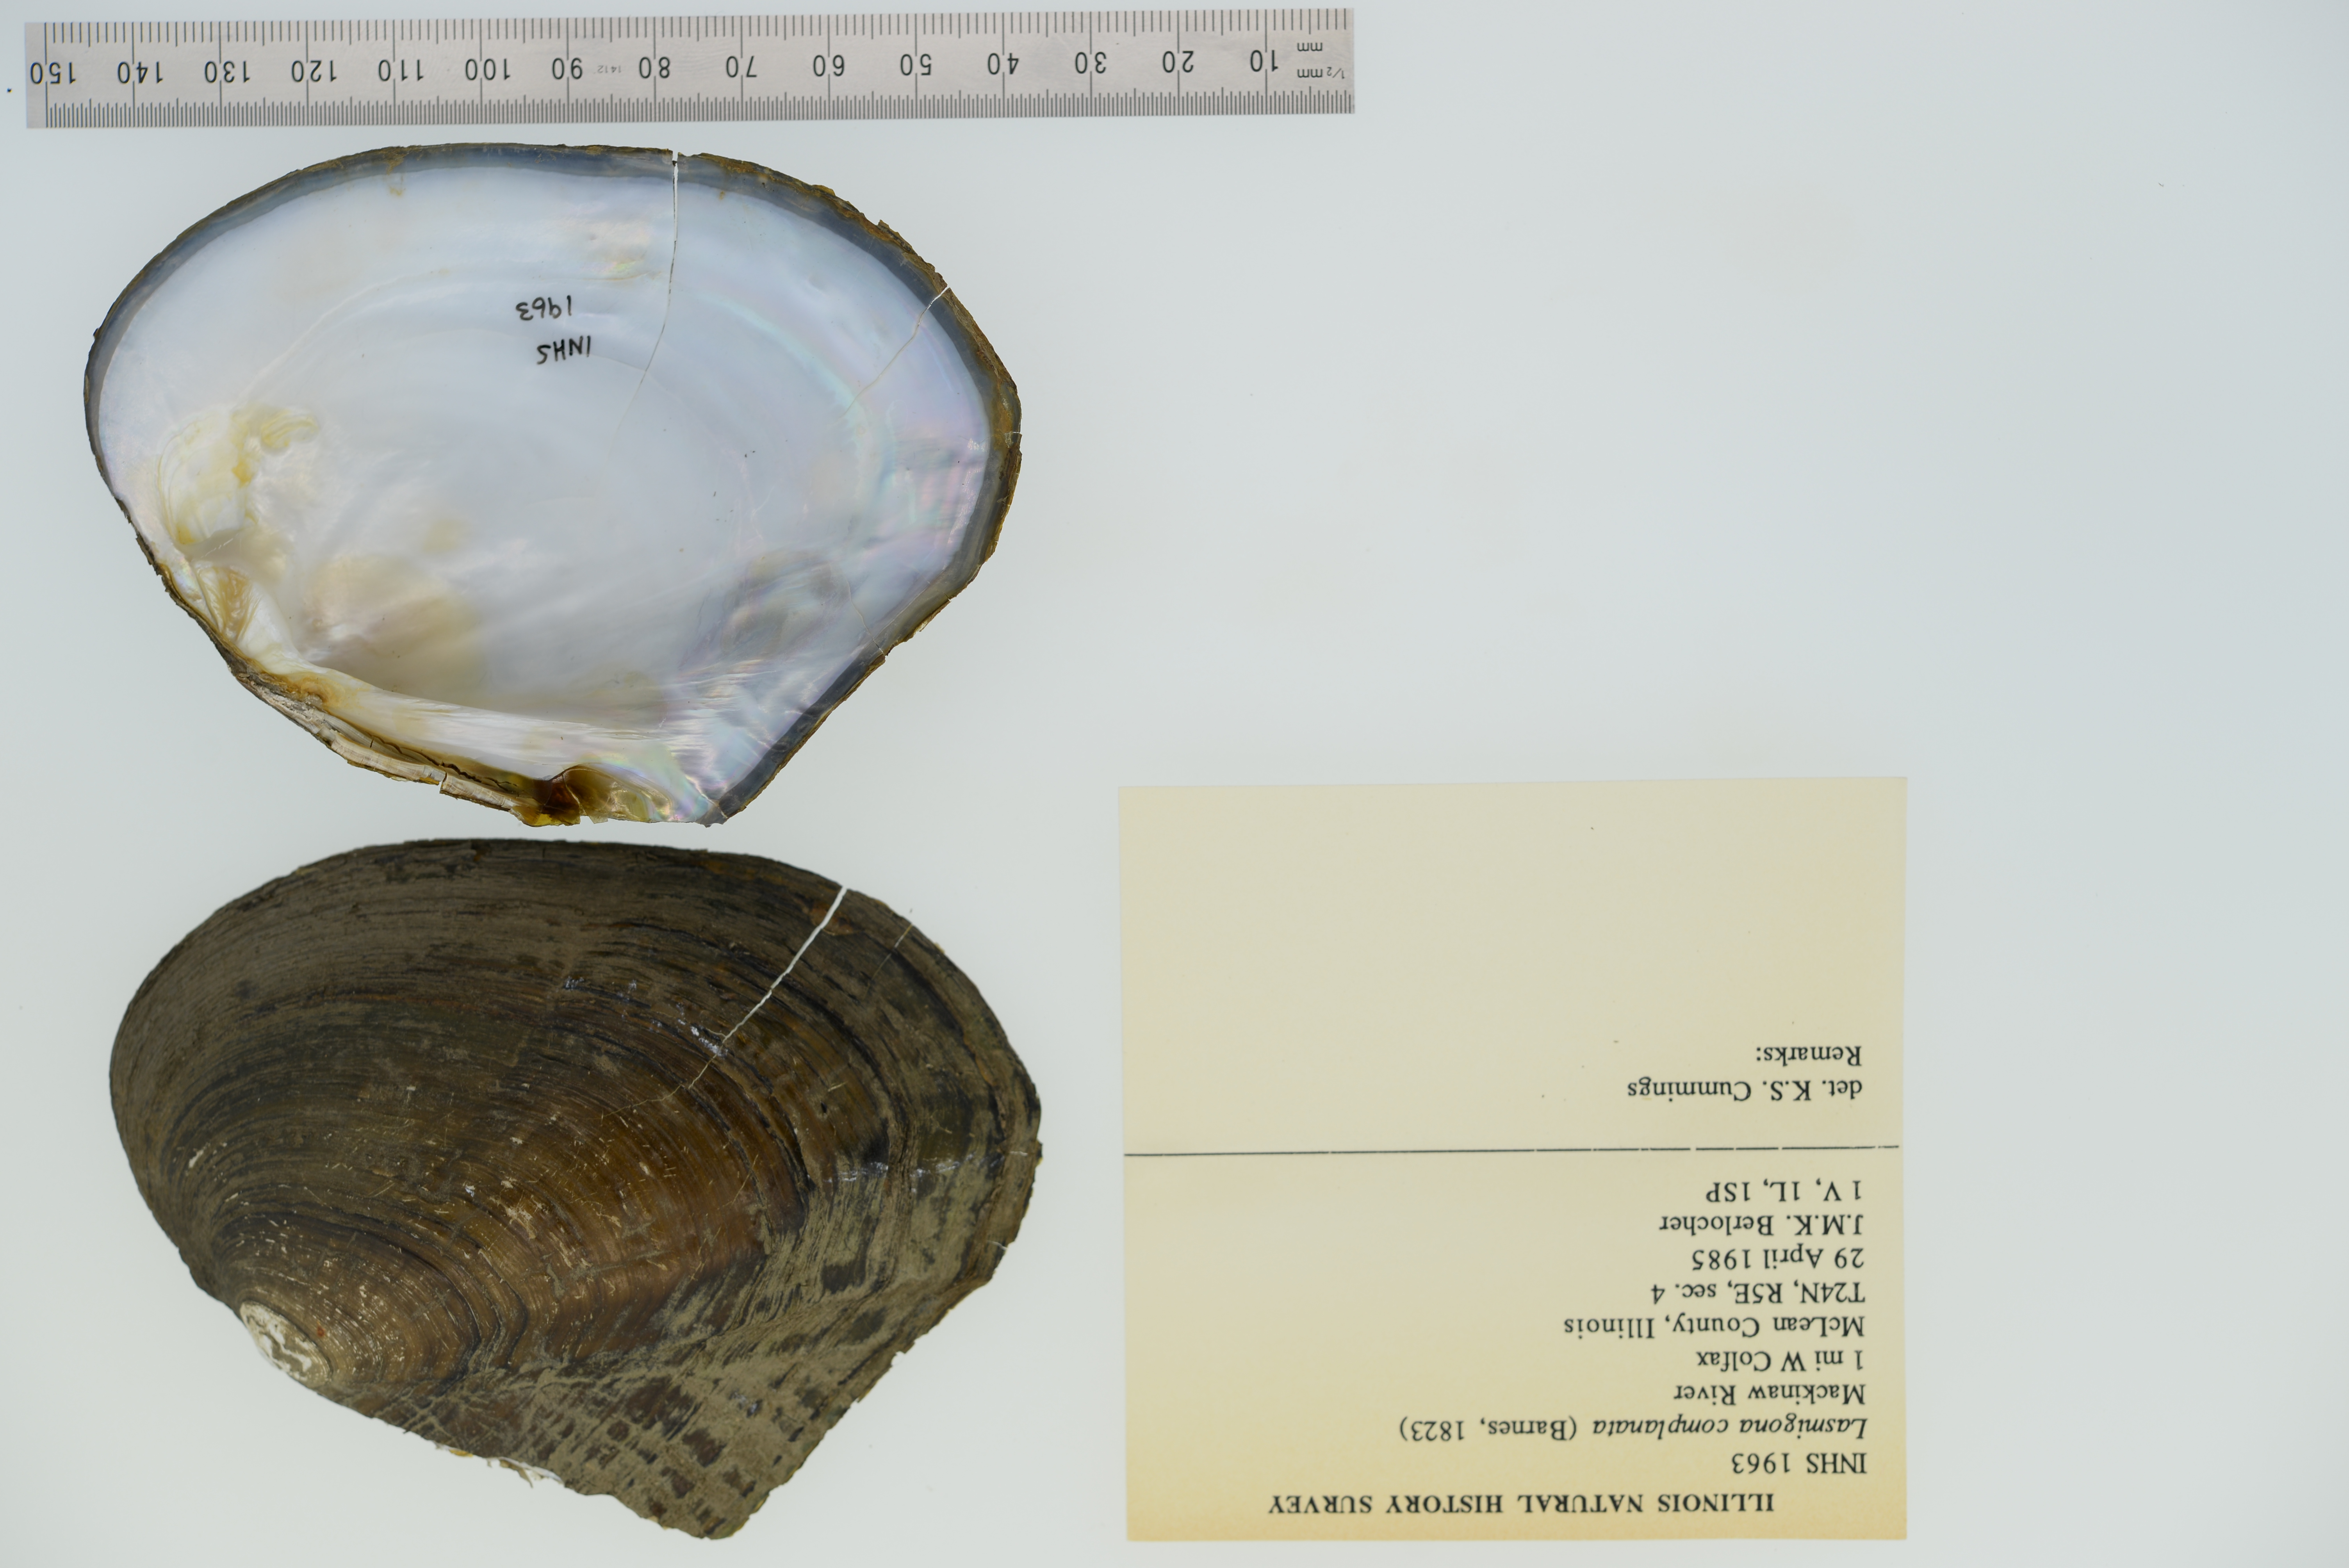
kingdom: Animalia
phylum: Mollusca
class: Bivalvia
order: Unionida
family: Unionidae
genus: Lasmigona
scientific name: Lasmigona complanata
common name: White heelsplitter
